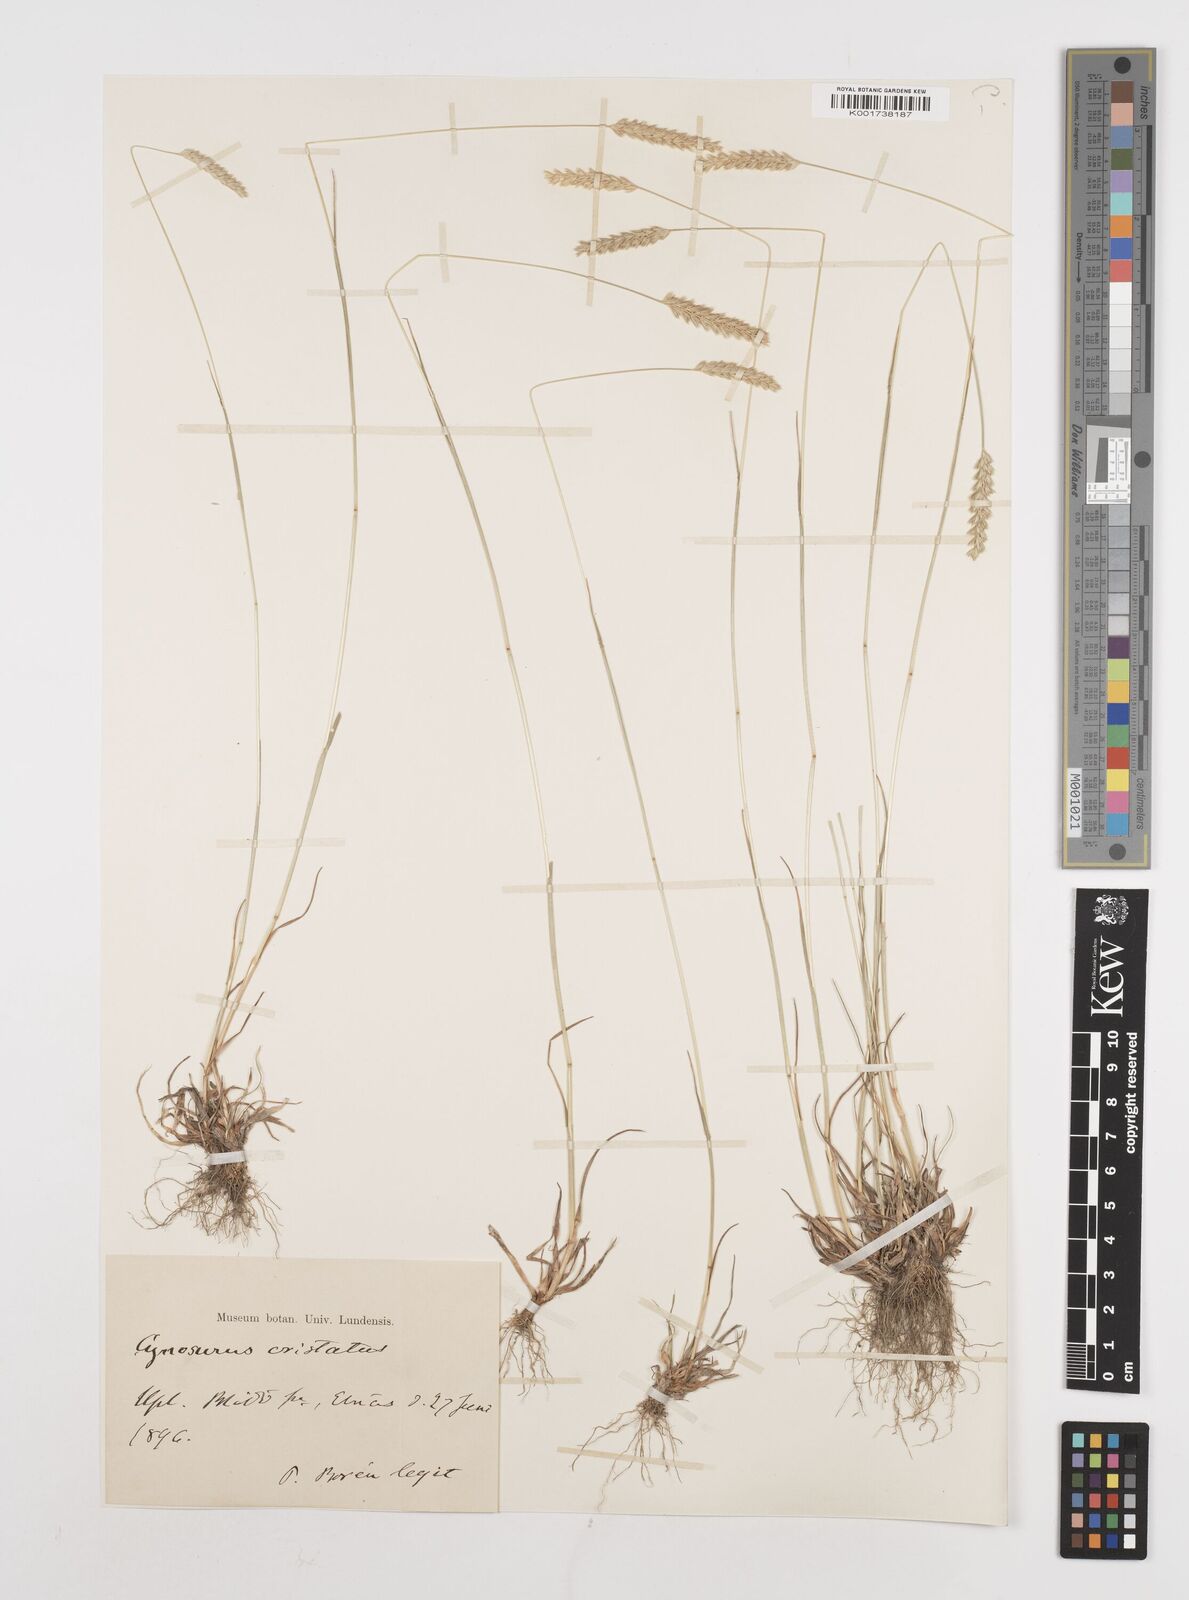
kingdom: Plantae
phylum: Tracheophyta
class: Liliopsida
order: Poales
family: Poaceae
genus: Cynosurus
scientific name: Cynosurus cristatus
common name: Crested dog's-tail
